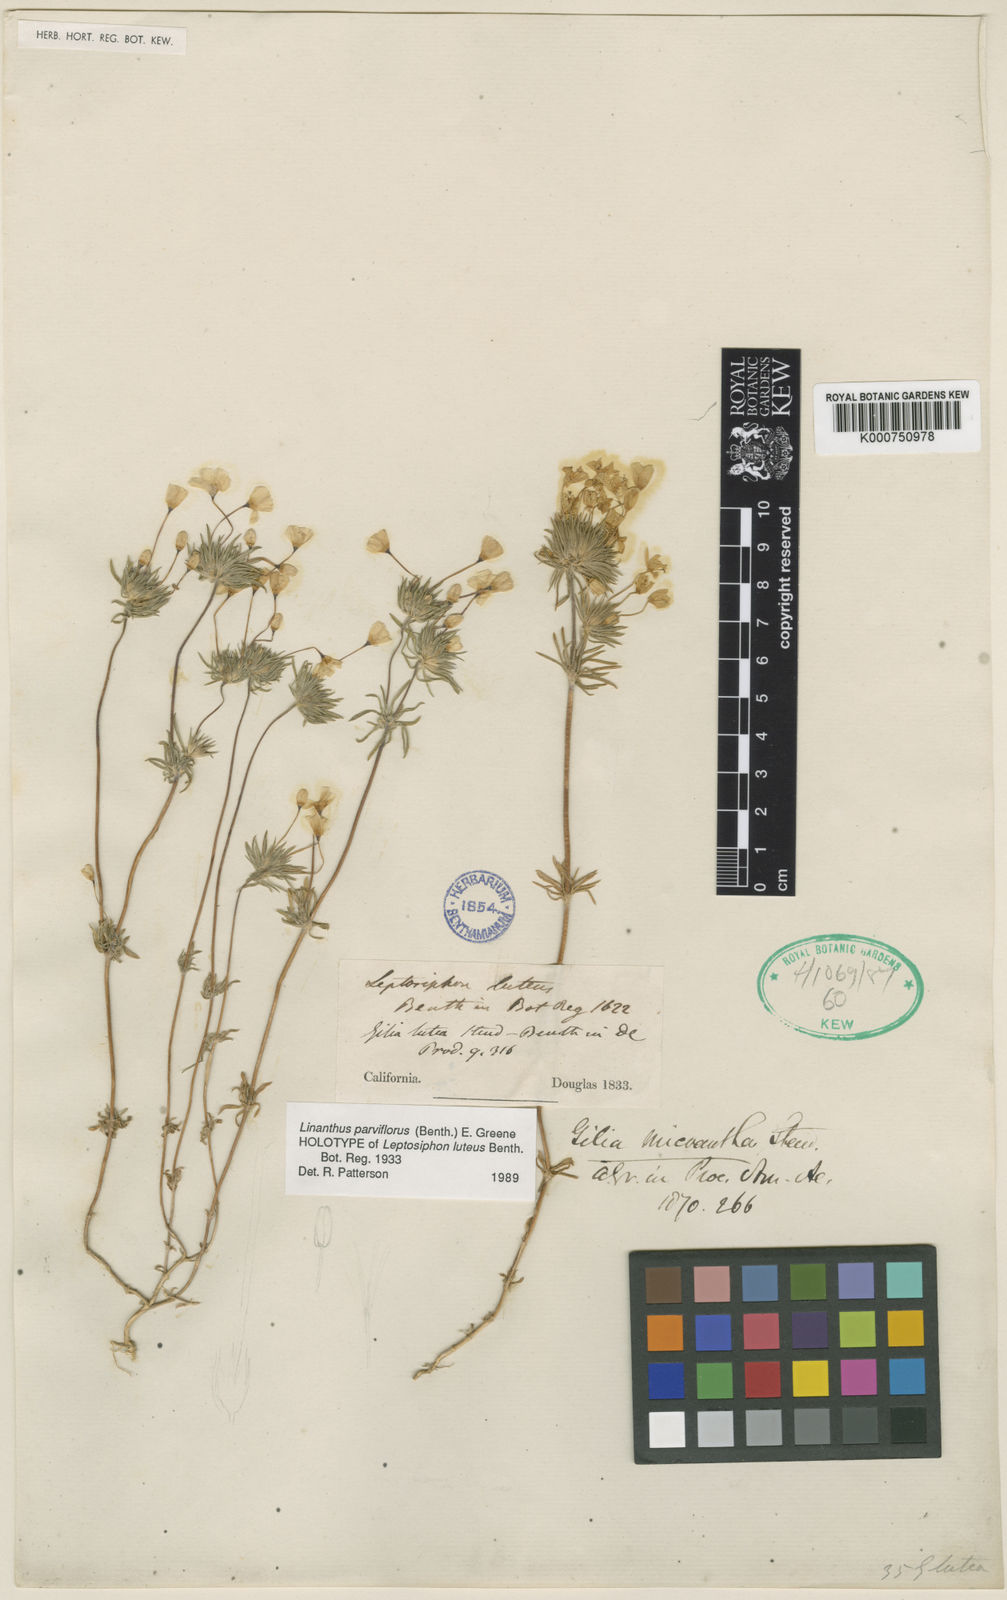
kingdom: Plantae
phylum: Tracheophyta
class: Magnoliopsida
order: Ericales
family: Polemoniaceae
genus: Leptosiphon
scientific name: Leptosiphon parviflorus
